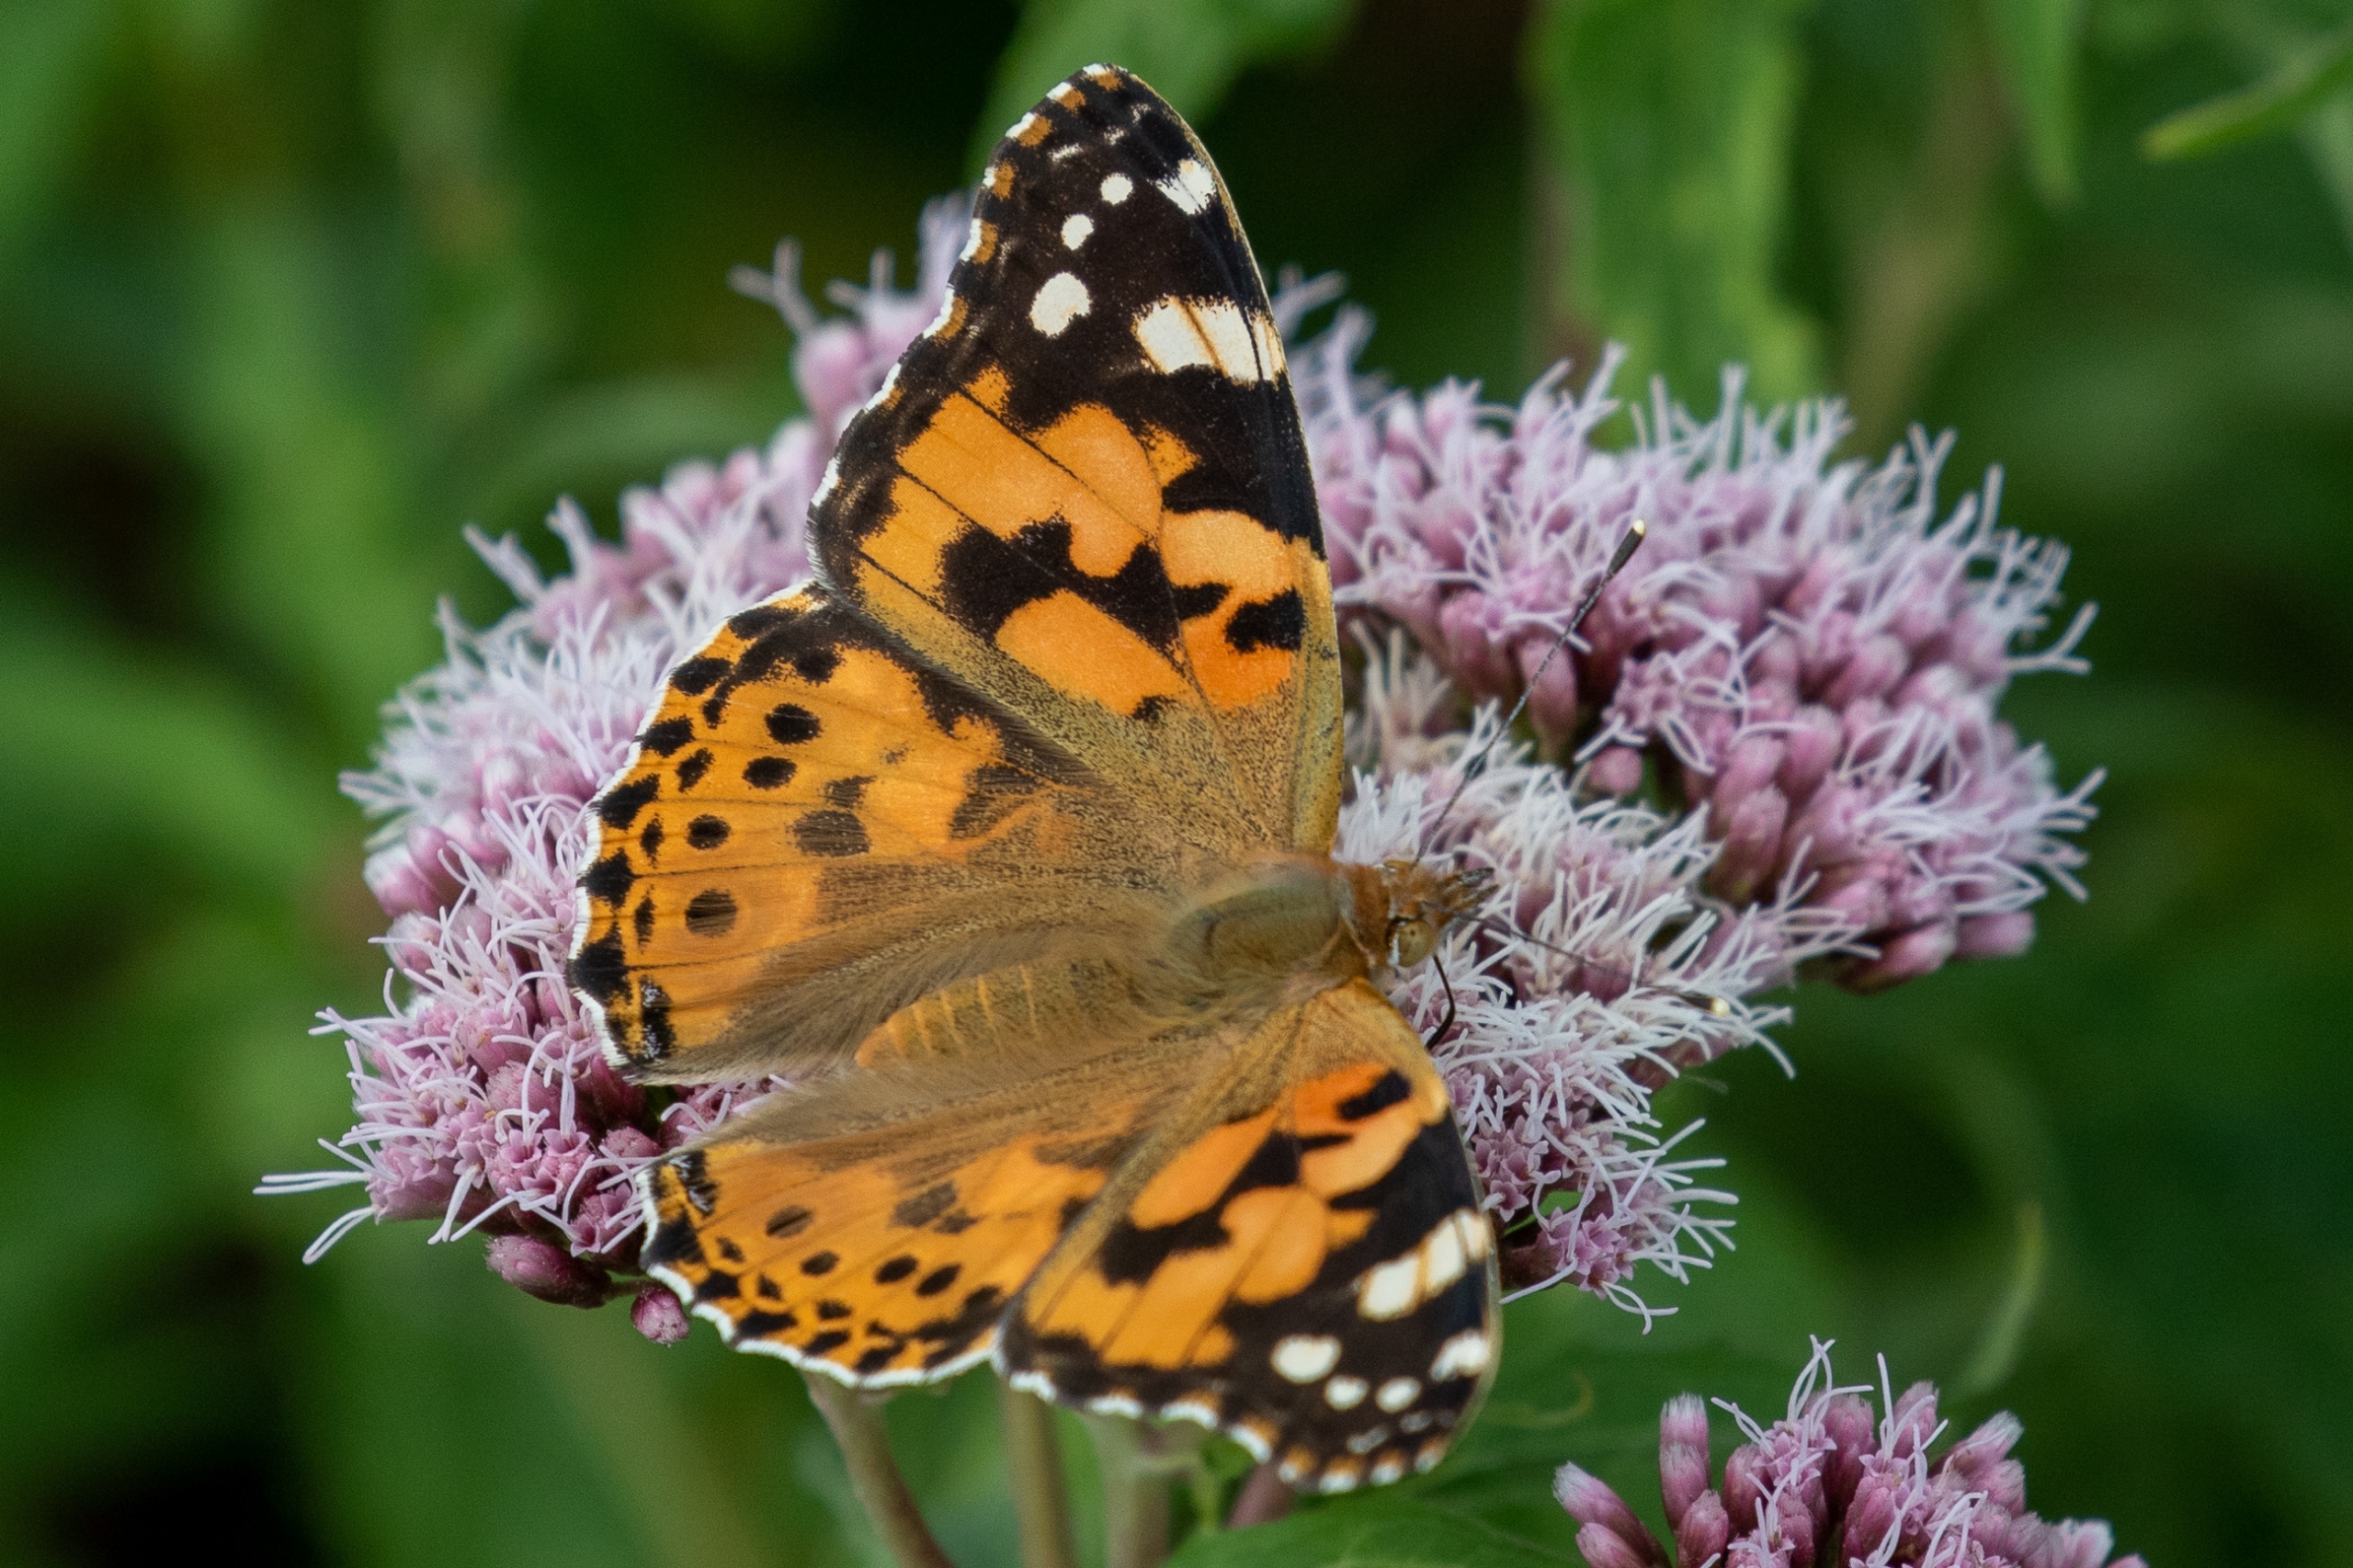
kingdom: Animalia
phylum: Arthropoda
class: Insecta
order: Lepidoptera
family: Nymphalidae
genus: Vanessa
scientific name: Vanessa cardui
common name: Tidselsommerfugl
